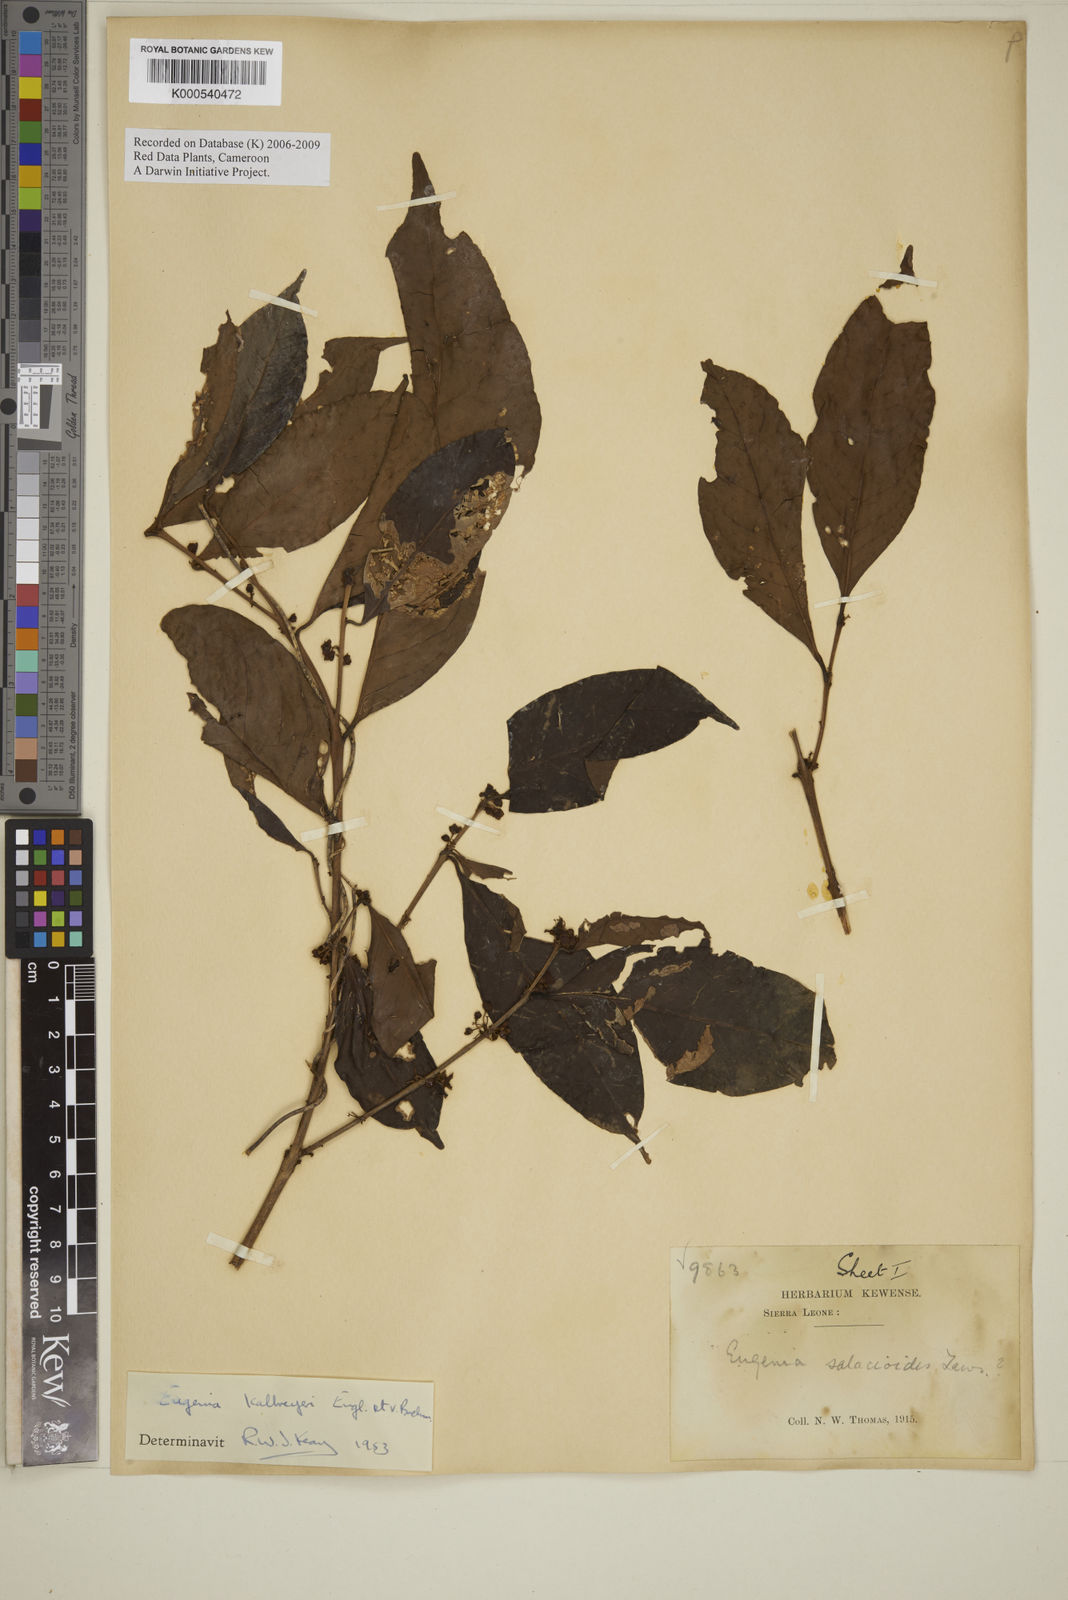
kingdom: Plantae
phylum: Tracheophyta
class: Magnoliopsida
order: Myrtales
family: Myrtaceae
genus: Eugenia
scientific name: Eugenia kalbreyeri
